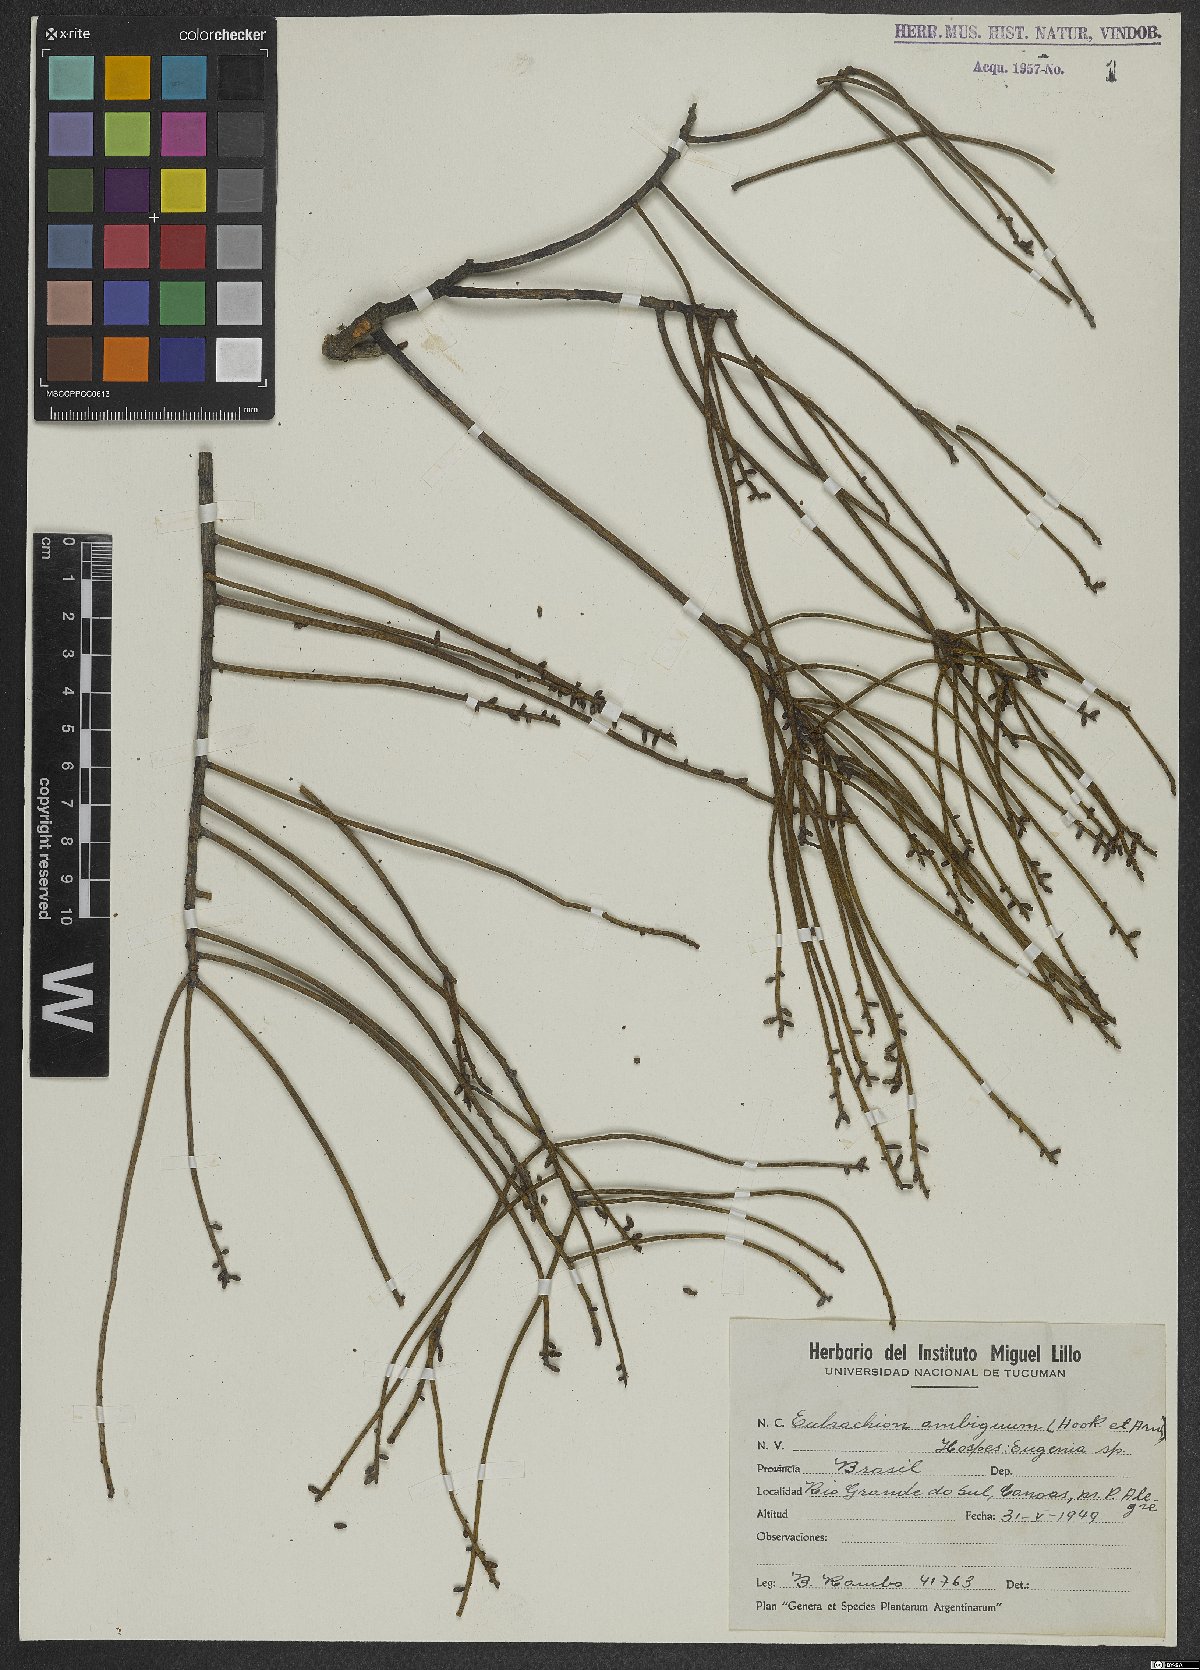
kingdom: Plantae
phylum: Tracheophyta
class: Magnoliopsida
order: Santalales
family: Santalaceae
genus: Eubrachion
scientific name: Eubrachion ambiguum
